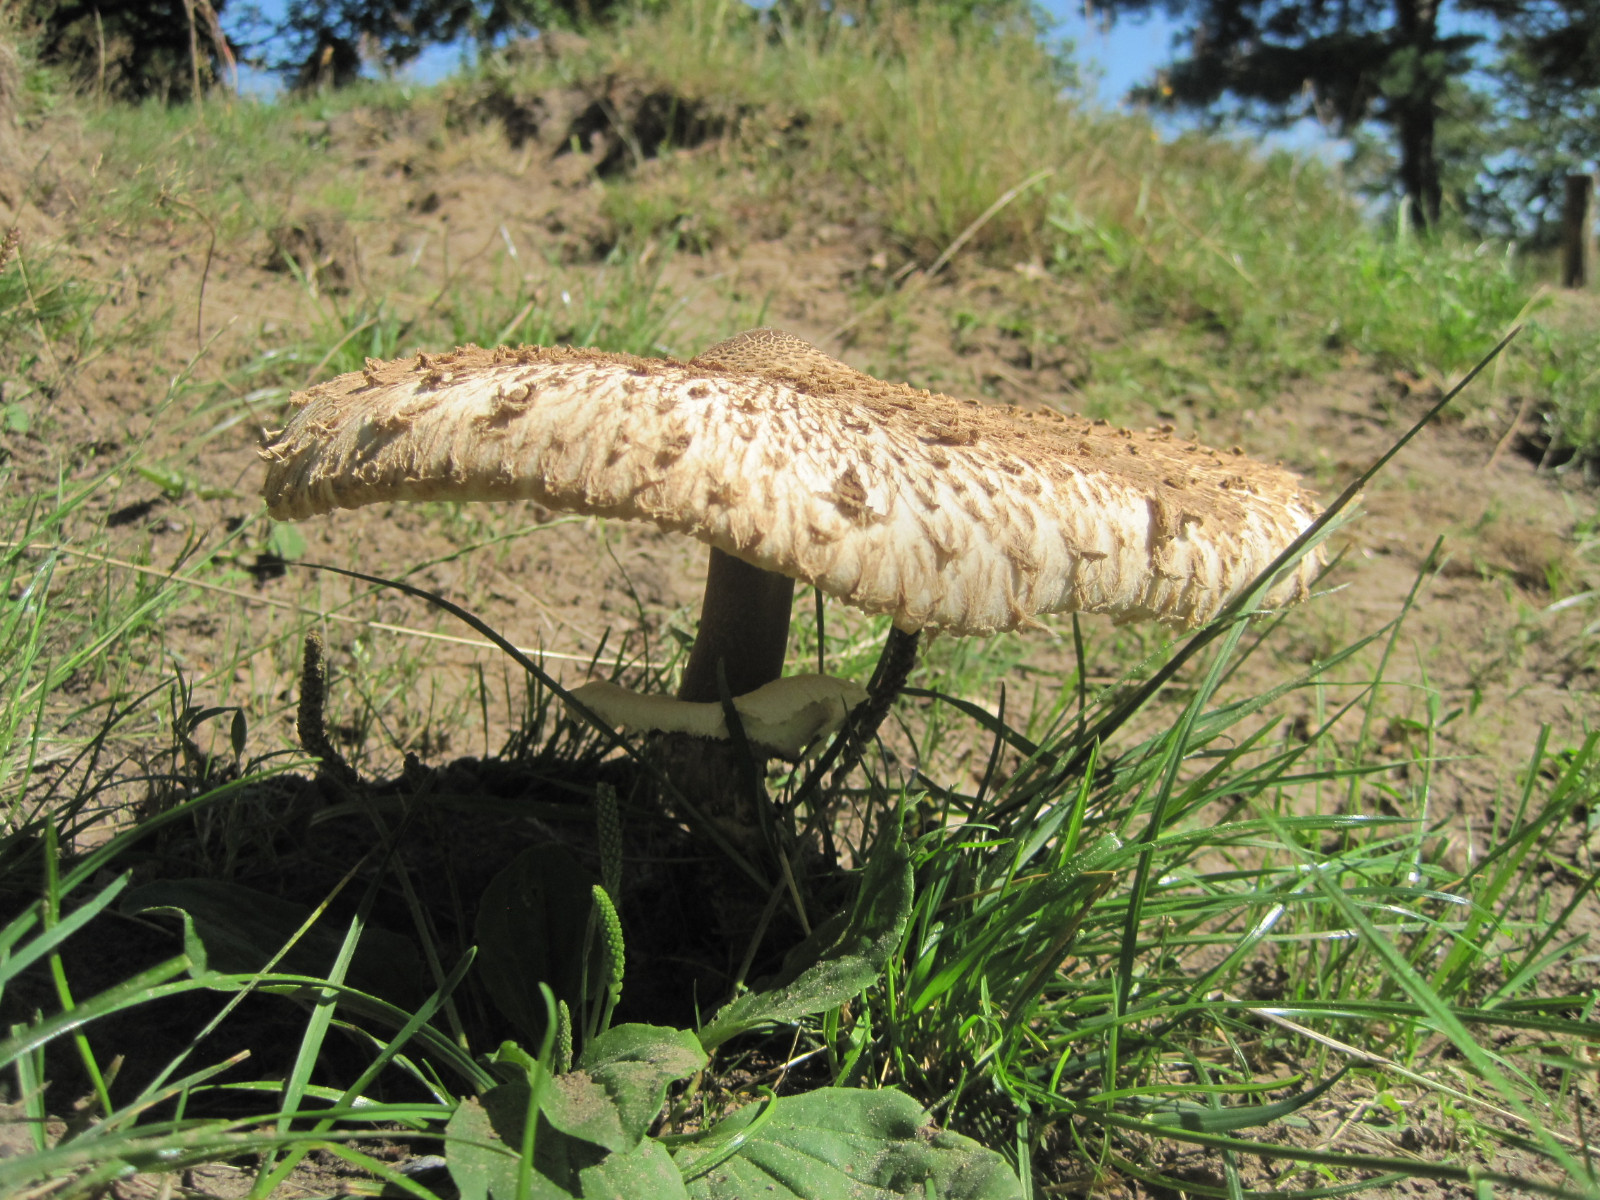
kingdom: Fungi
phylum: Basidiomycota
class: Agaricomycetes
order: Agaricales
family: Agaricaceae
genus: Macrolepiota
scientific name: Macrolepiota procera
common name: stor kæmpeparasolhat
